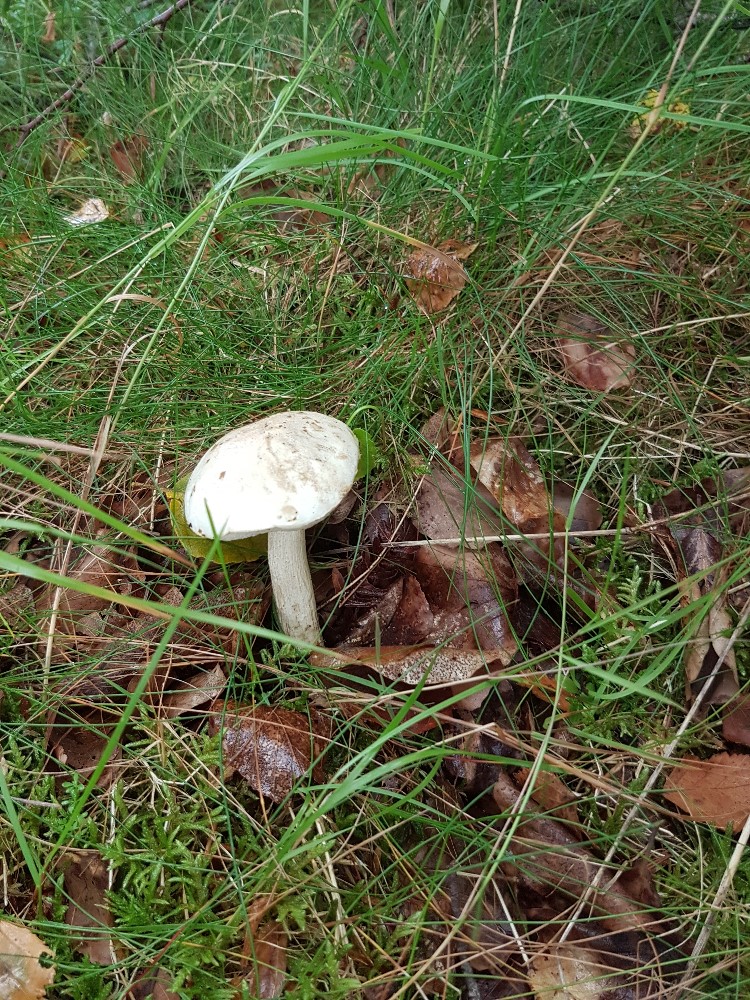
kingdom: Fungi
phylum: Basidiomycota
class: Agaricomycetes
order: Boletales
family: Boletaceae
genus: Leccinum
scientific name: Leccinum scabrum
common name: hvid skælrørhat
